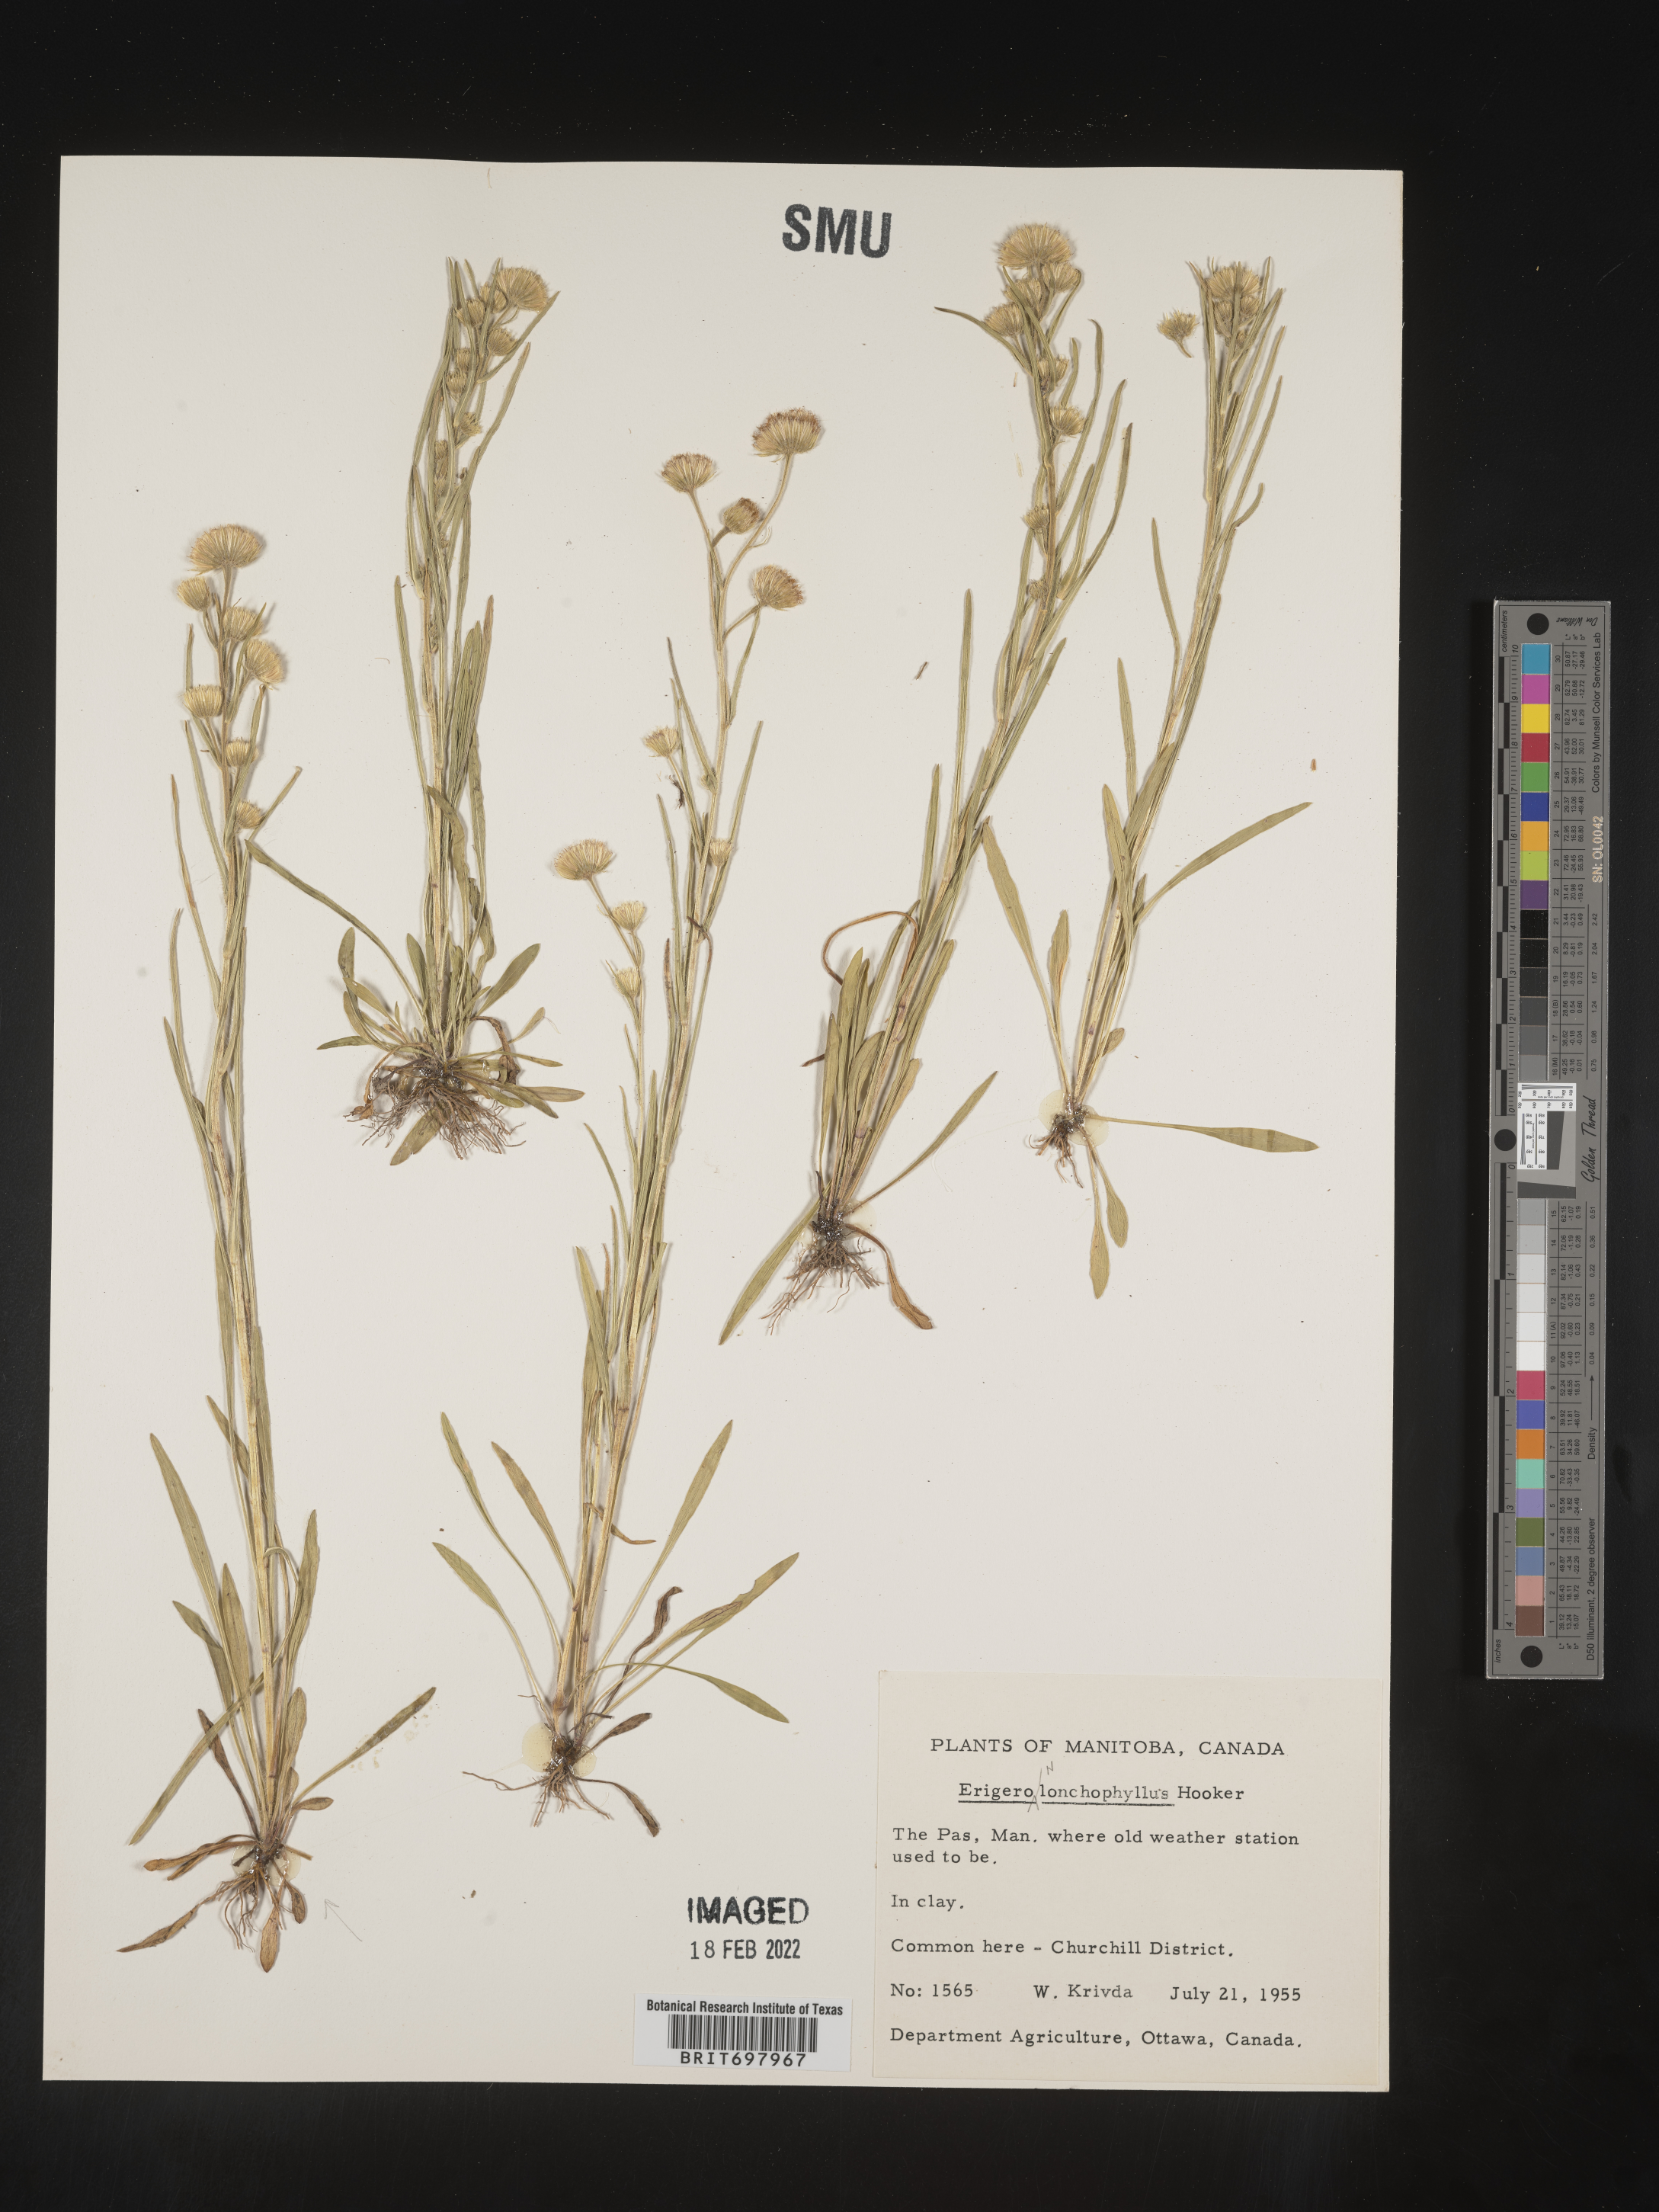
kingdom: Plantae
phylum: Tracheophyta
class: Magnoliopsida
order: Asterales
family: Asteraceae
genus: Erigeron
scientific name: Erigeron lonchophyllus
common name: Short-ray fleabane
